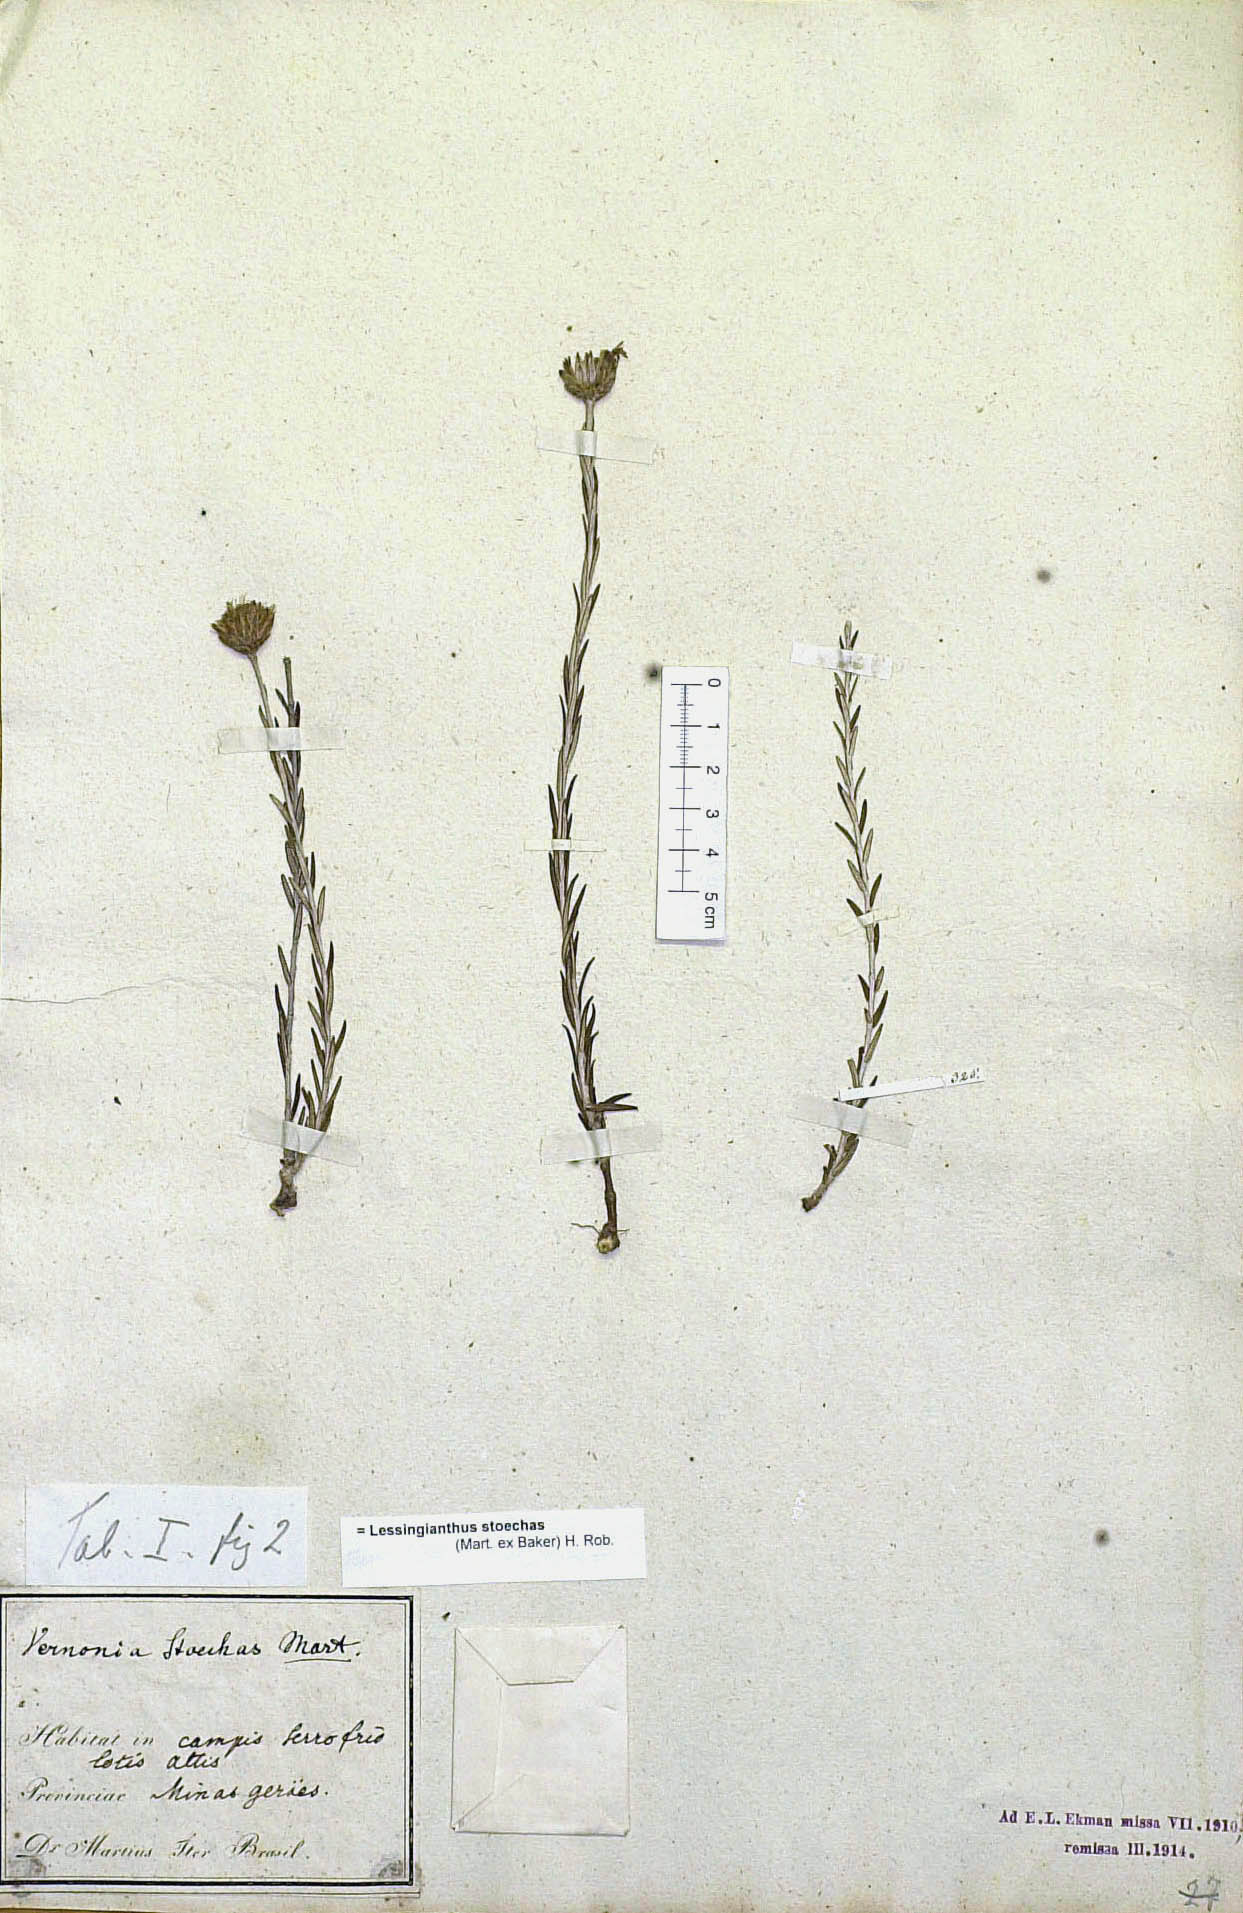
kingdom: Plantae
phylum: Tracheophyta
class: Magnoliopsida
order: Asterales
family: Asteraceae
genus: Lessingianthus
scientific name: Lessingianthus stoechas
